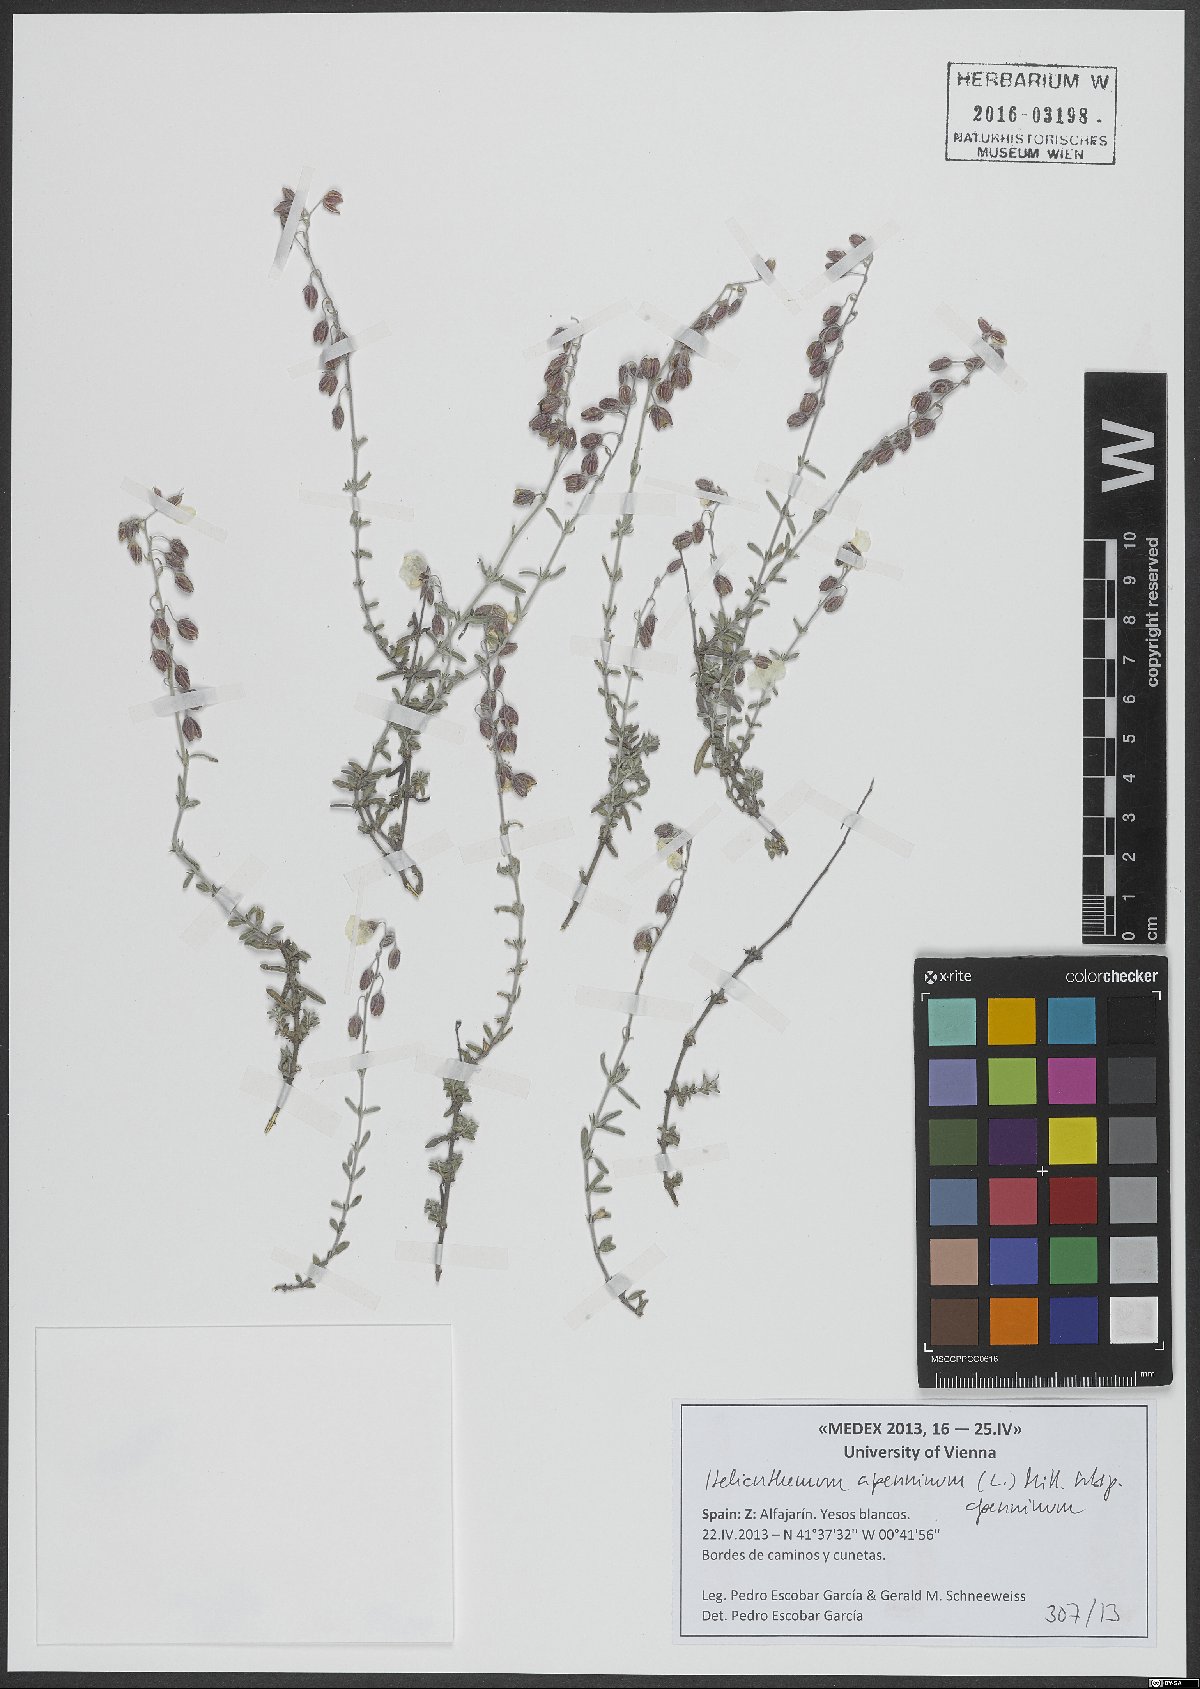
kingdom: Plantae
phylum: Tracheophyta
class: Magnoliopsida
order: Malvales
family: Cistaceae
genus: Helianthemum
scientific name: Helianthemum apenninum
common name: White rock-rose
